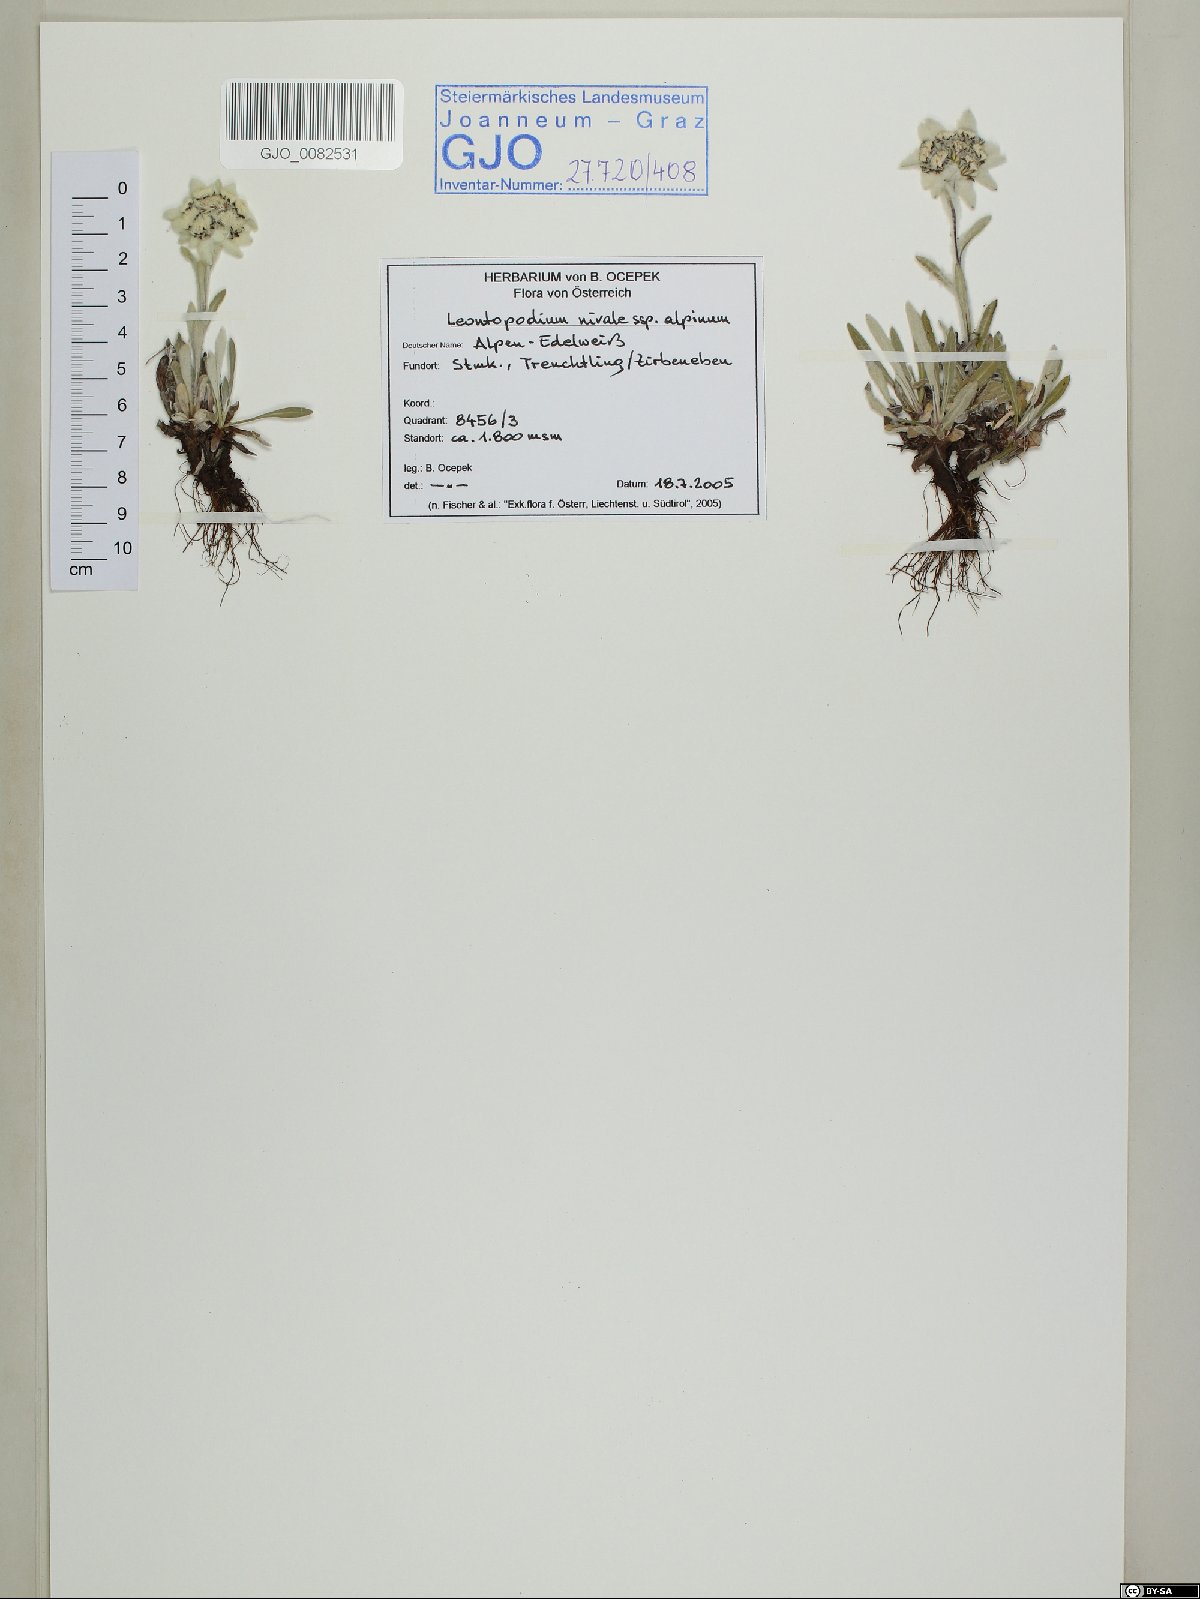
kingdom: Plantae
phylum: Tracheophyta
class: Magnoliopsida
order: Asterales
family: Asteraceae
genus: Leontopodium
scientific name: Leontopodium nivale
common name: Edelweiss
